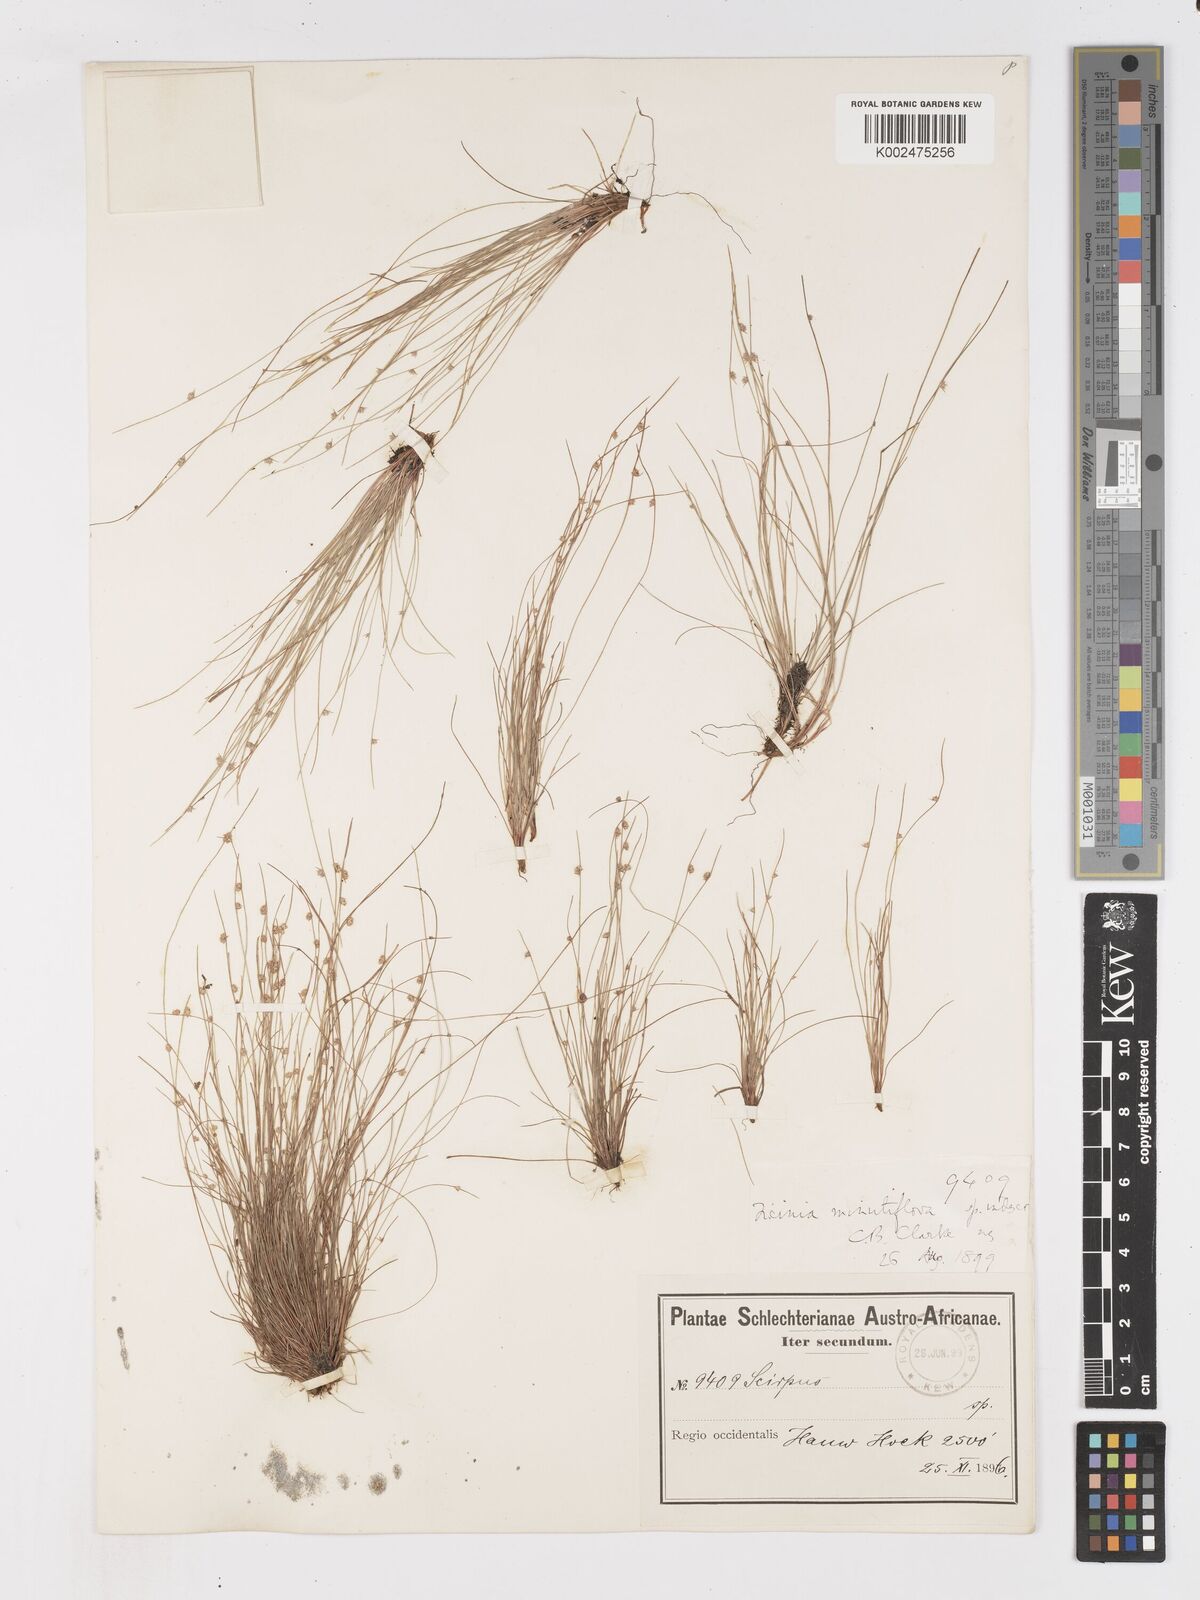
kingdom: Plantae
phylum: Tracheophyta
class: Liliopsida
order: Poales
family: Cyperaceae
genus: Ficinia
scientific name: Ficinia minutiflora
